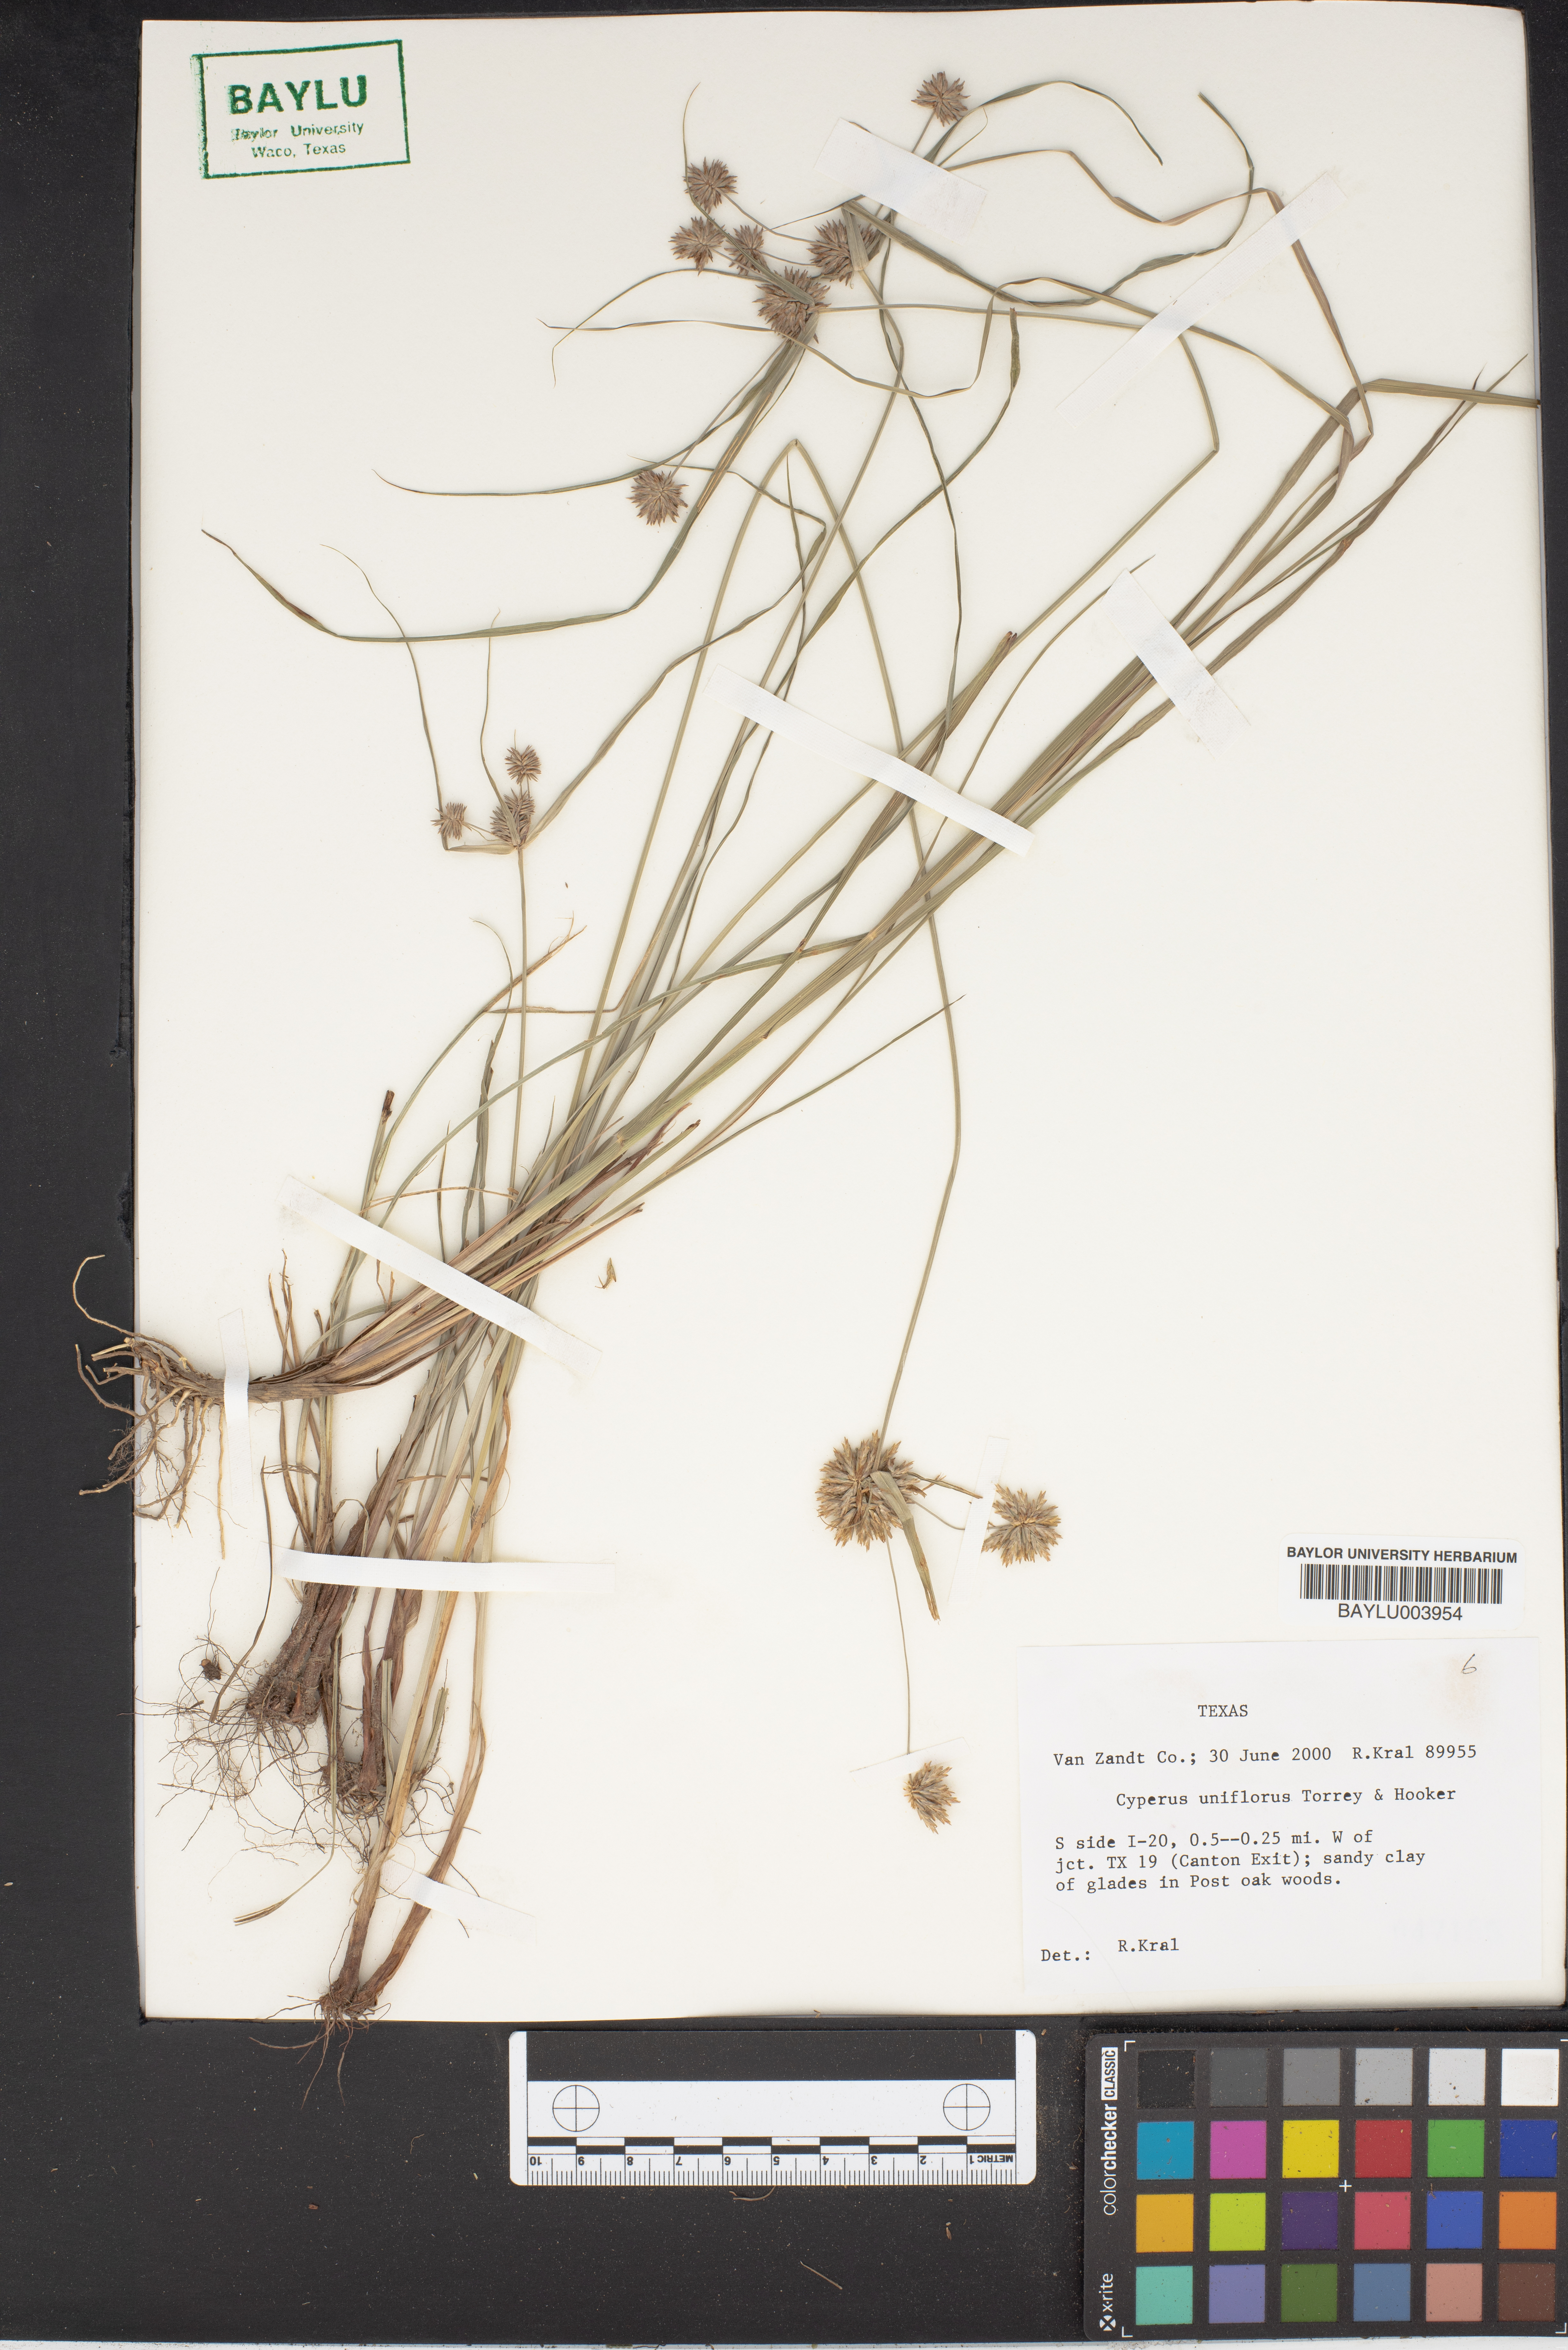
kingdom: Plantae
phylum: Tracheophyta
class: Liliopsida
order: Poales
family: Cyperaceae
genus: Cyperus
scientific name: Cyperus retroflexus
